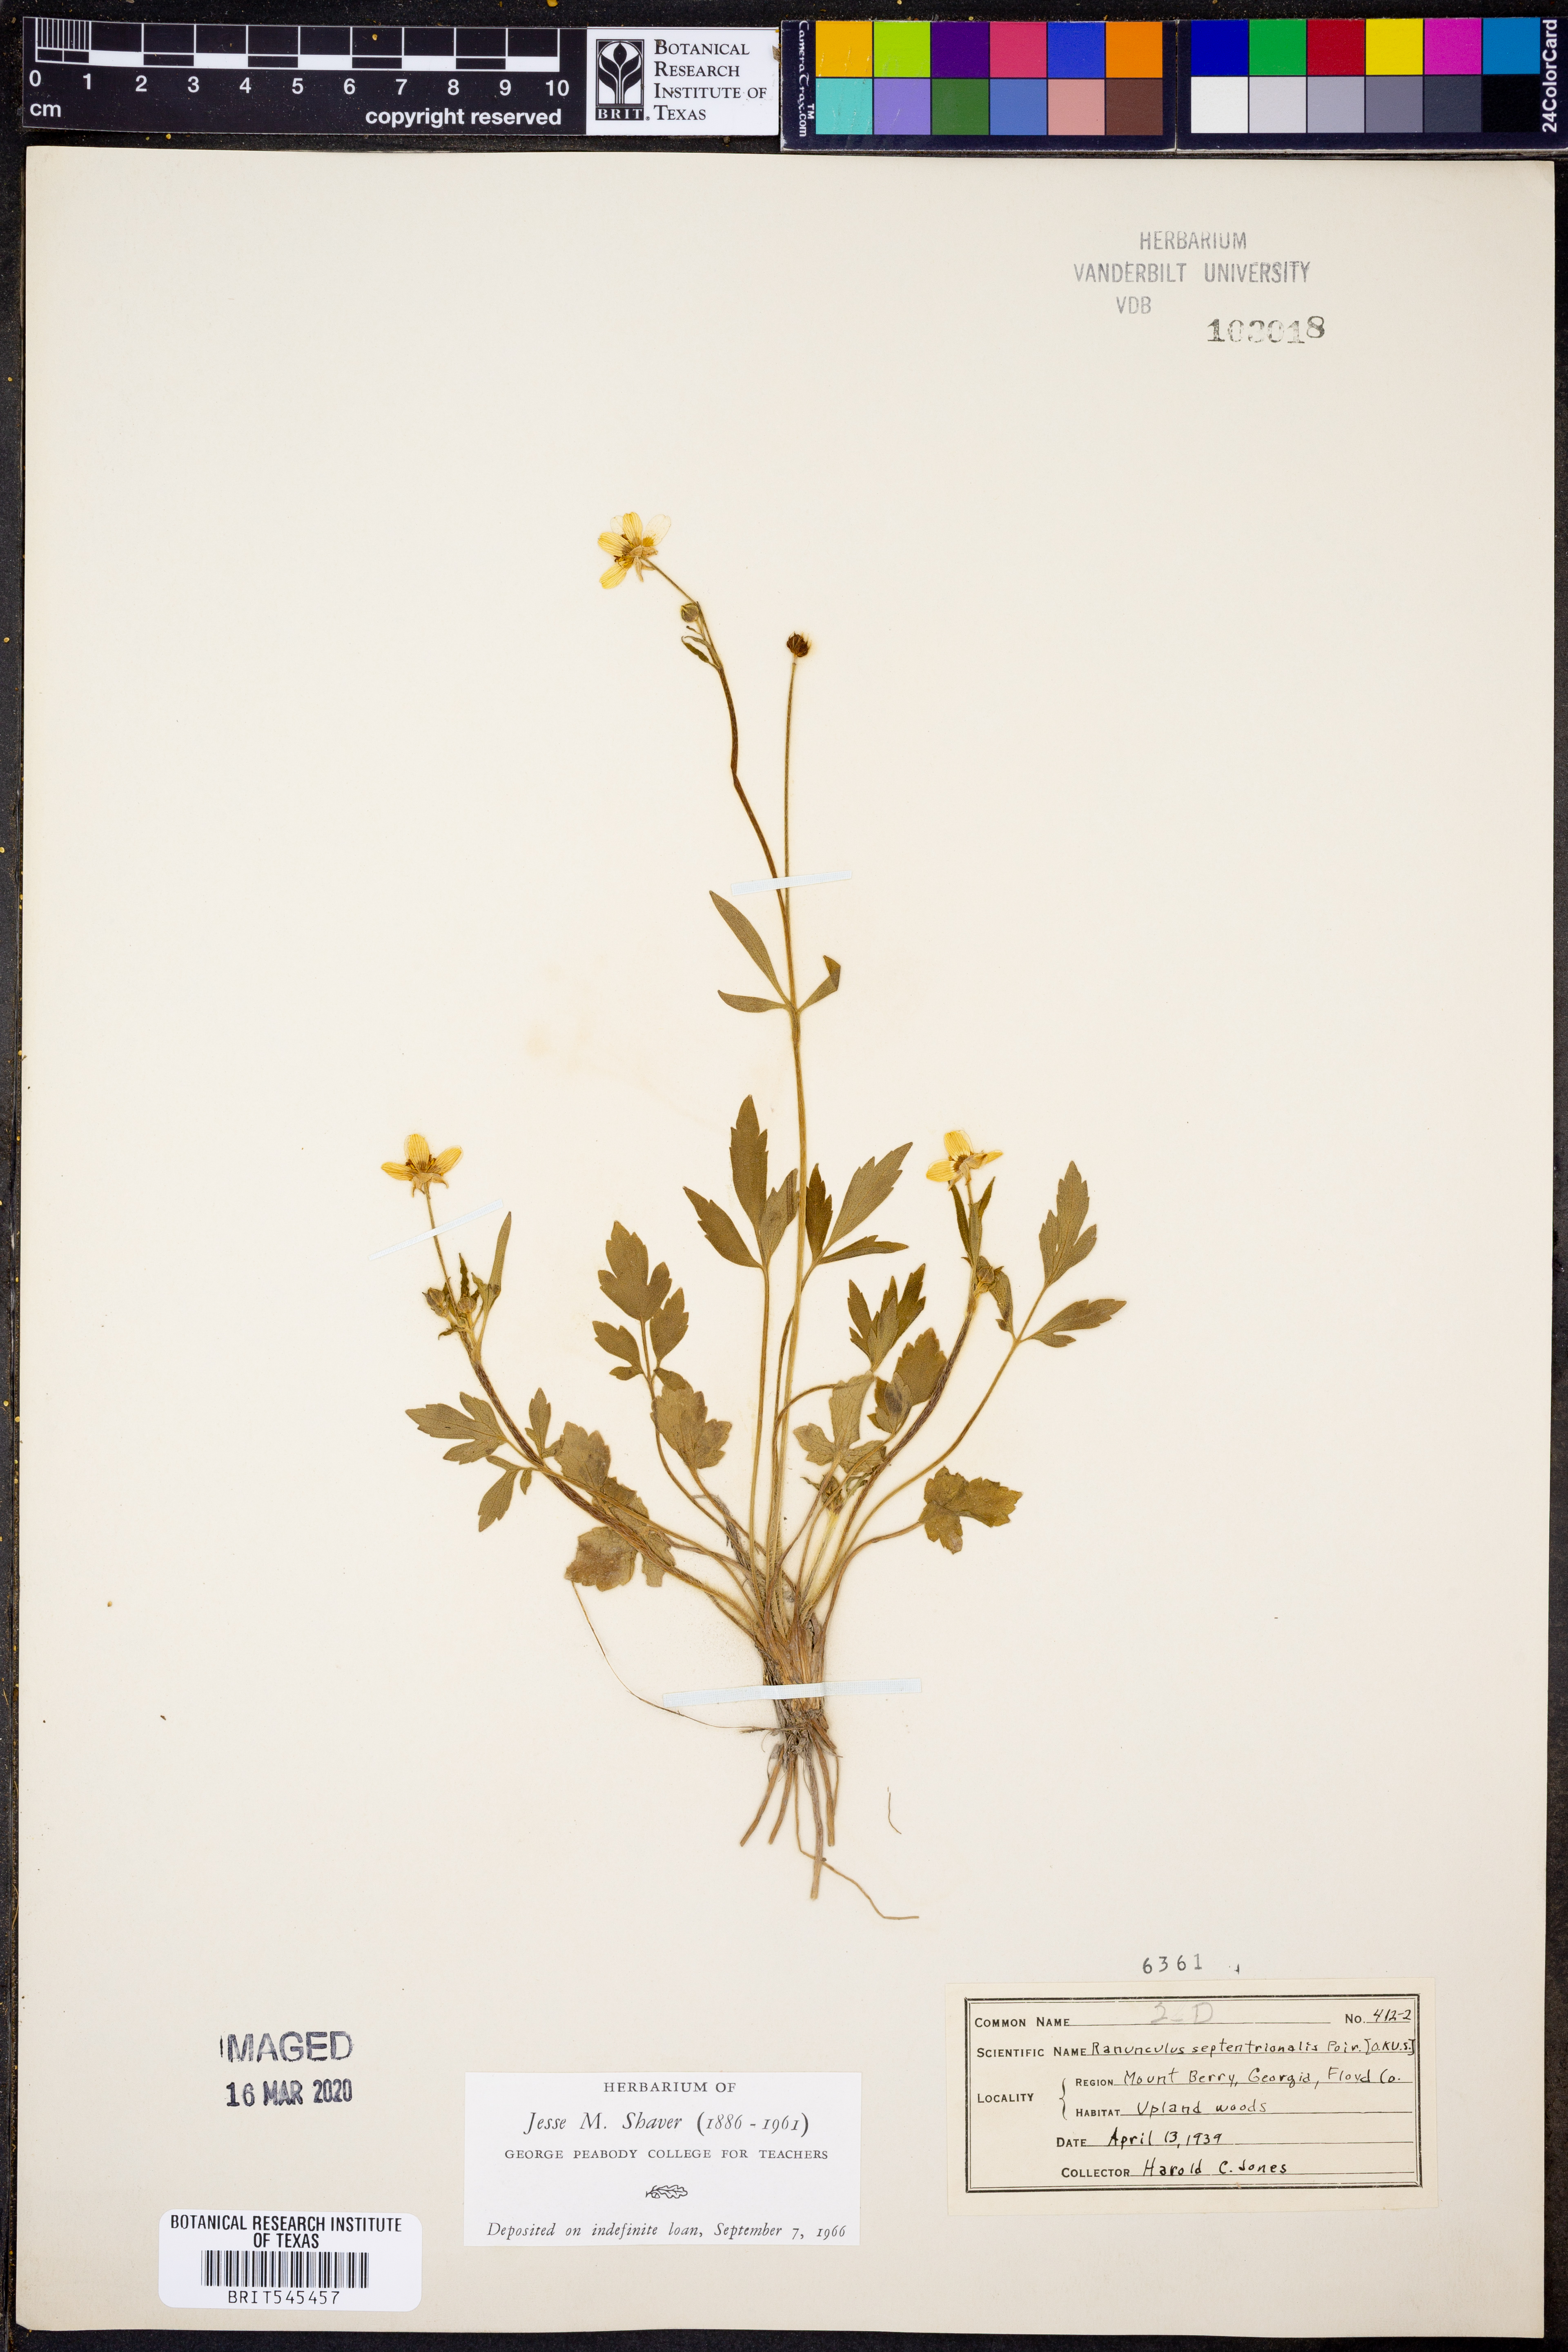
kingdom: Plantae
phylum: Tracheophyta
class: Magnoliopsida
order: Ranunculales
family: Ranunculaceae
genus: Ranunculus
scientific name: Ranunculus hispidus
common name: Bristly buttercup
